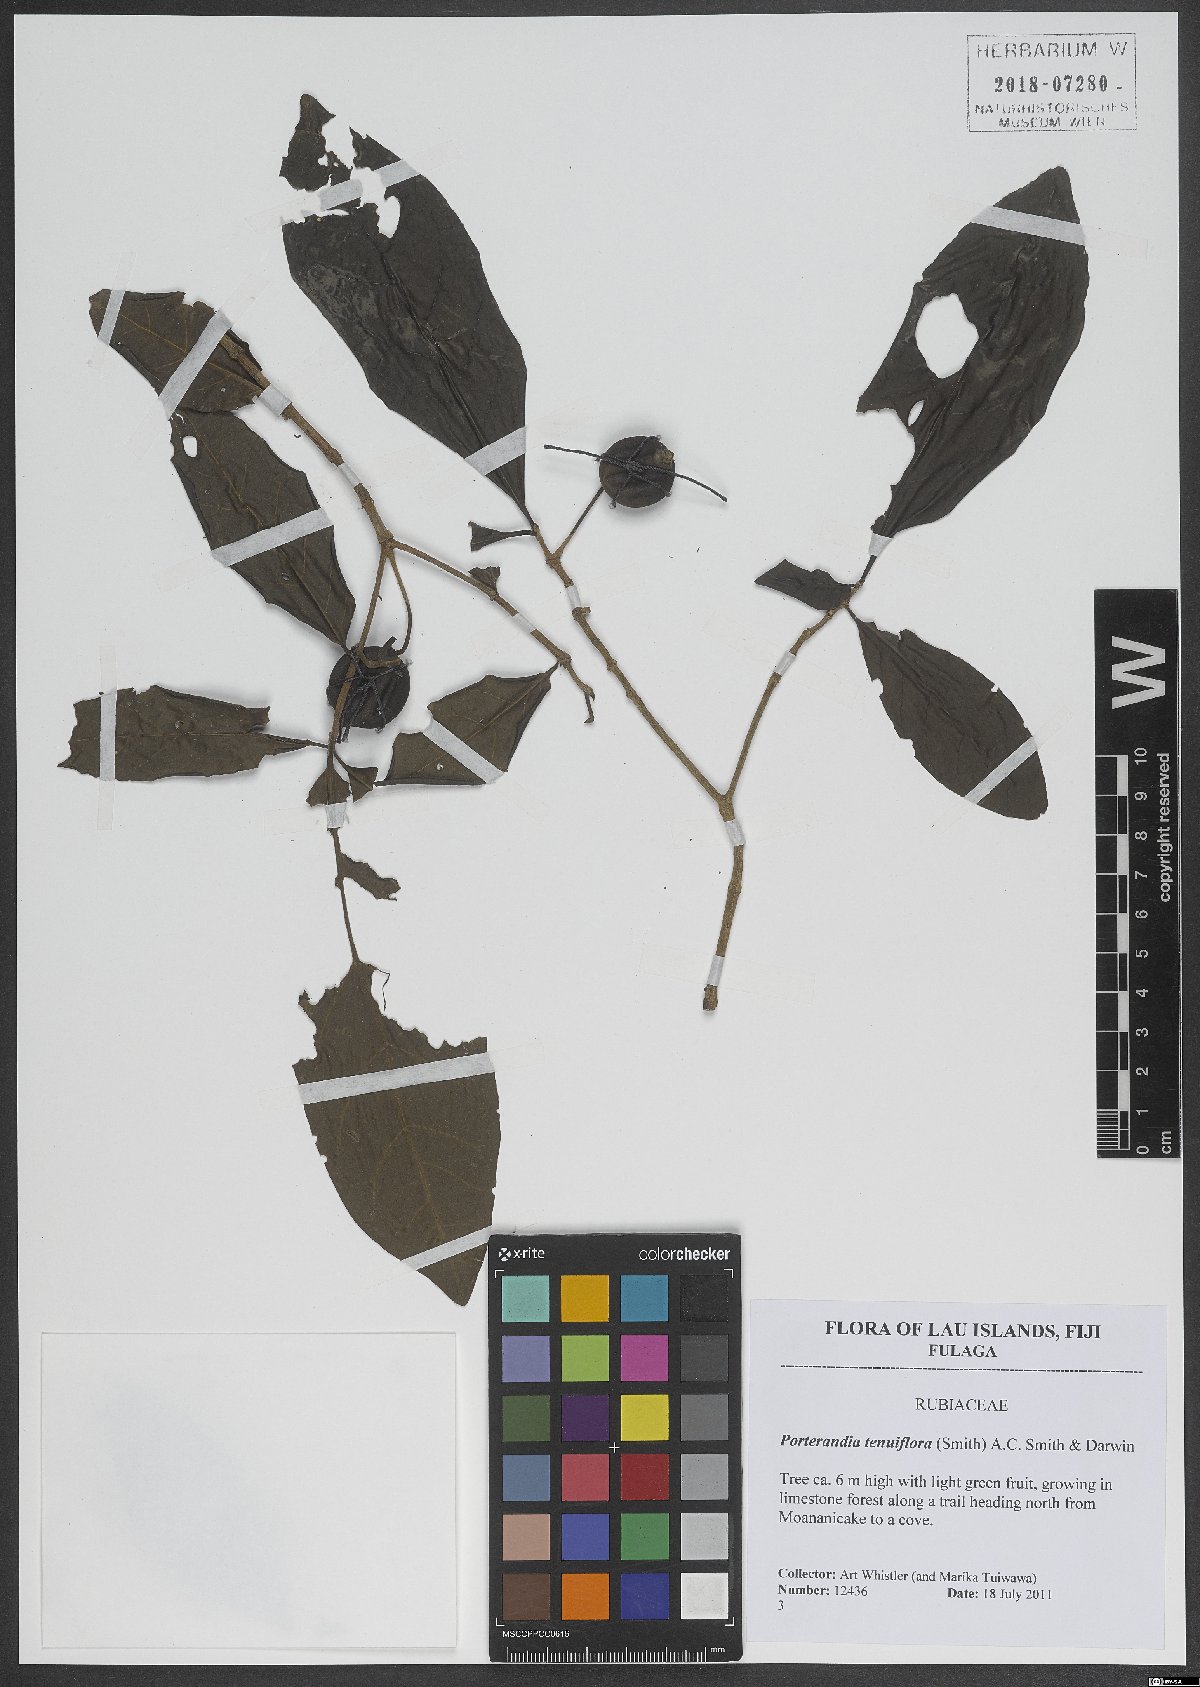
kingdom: Plantae
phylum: Tracheophyta
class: Magnoliopsida
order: Gentianales
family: Rubiaceae
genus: Atractocarpus
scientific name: Atractocarpus tenuiflorus
